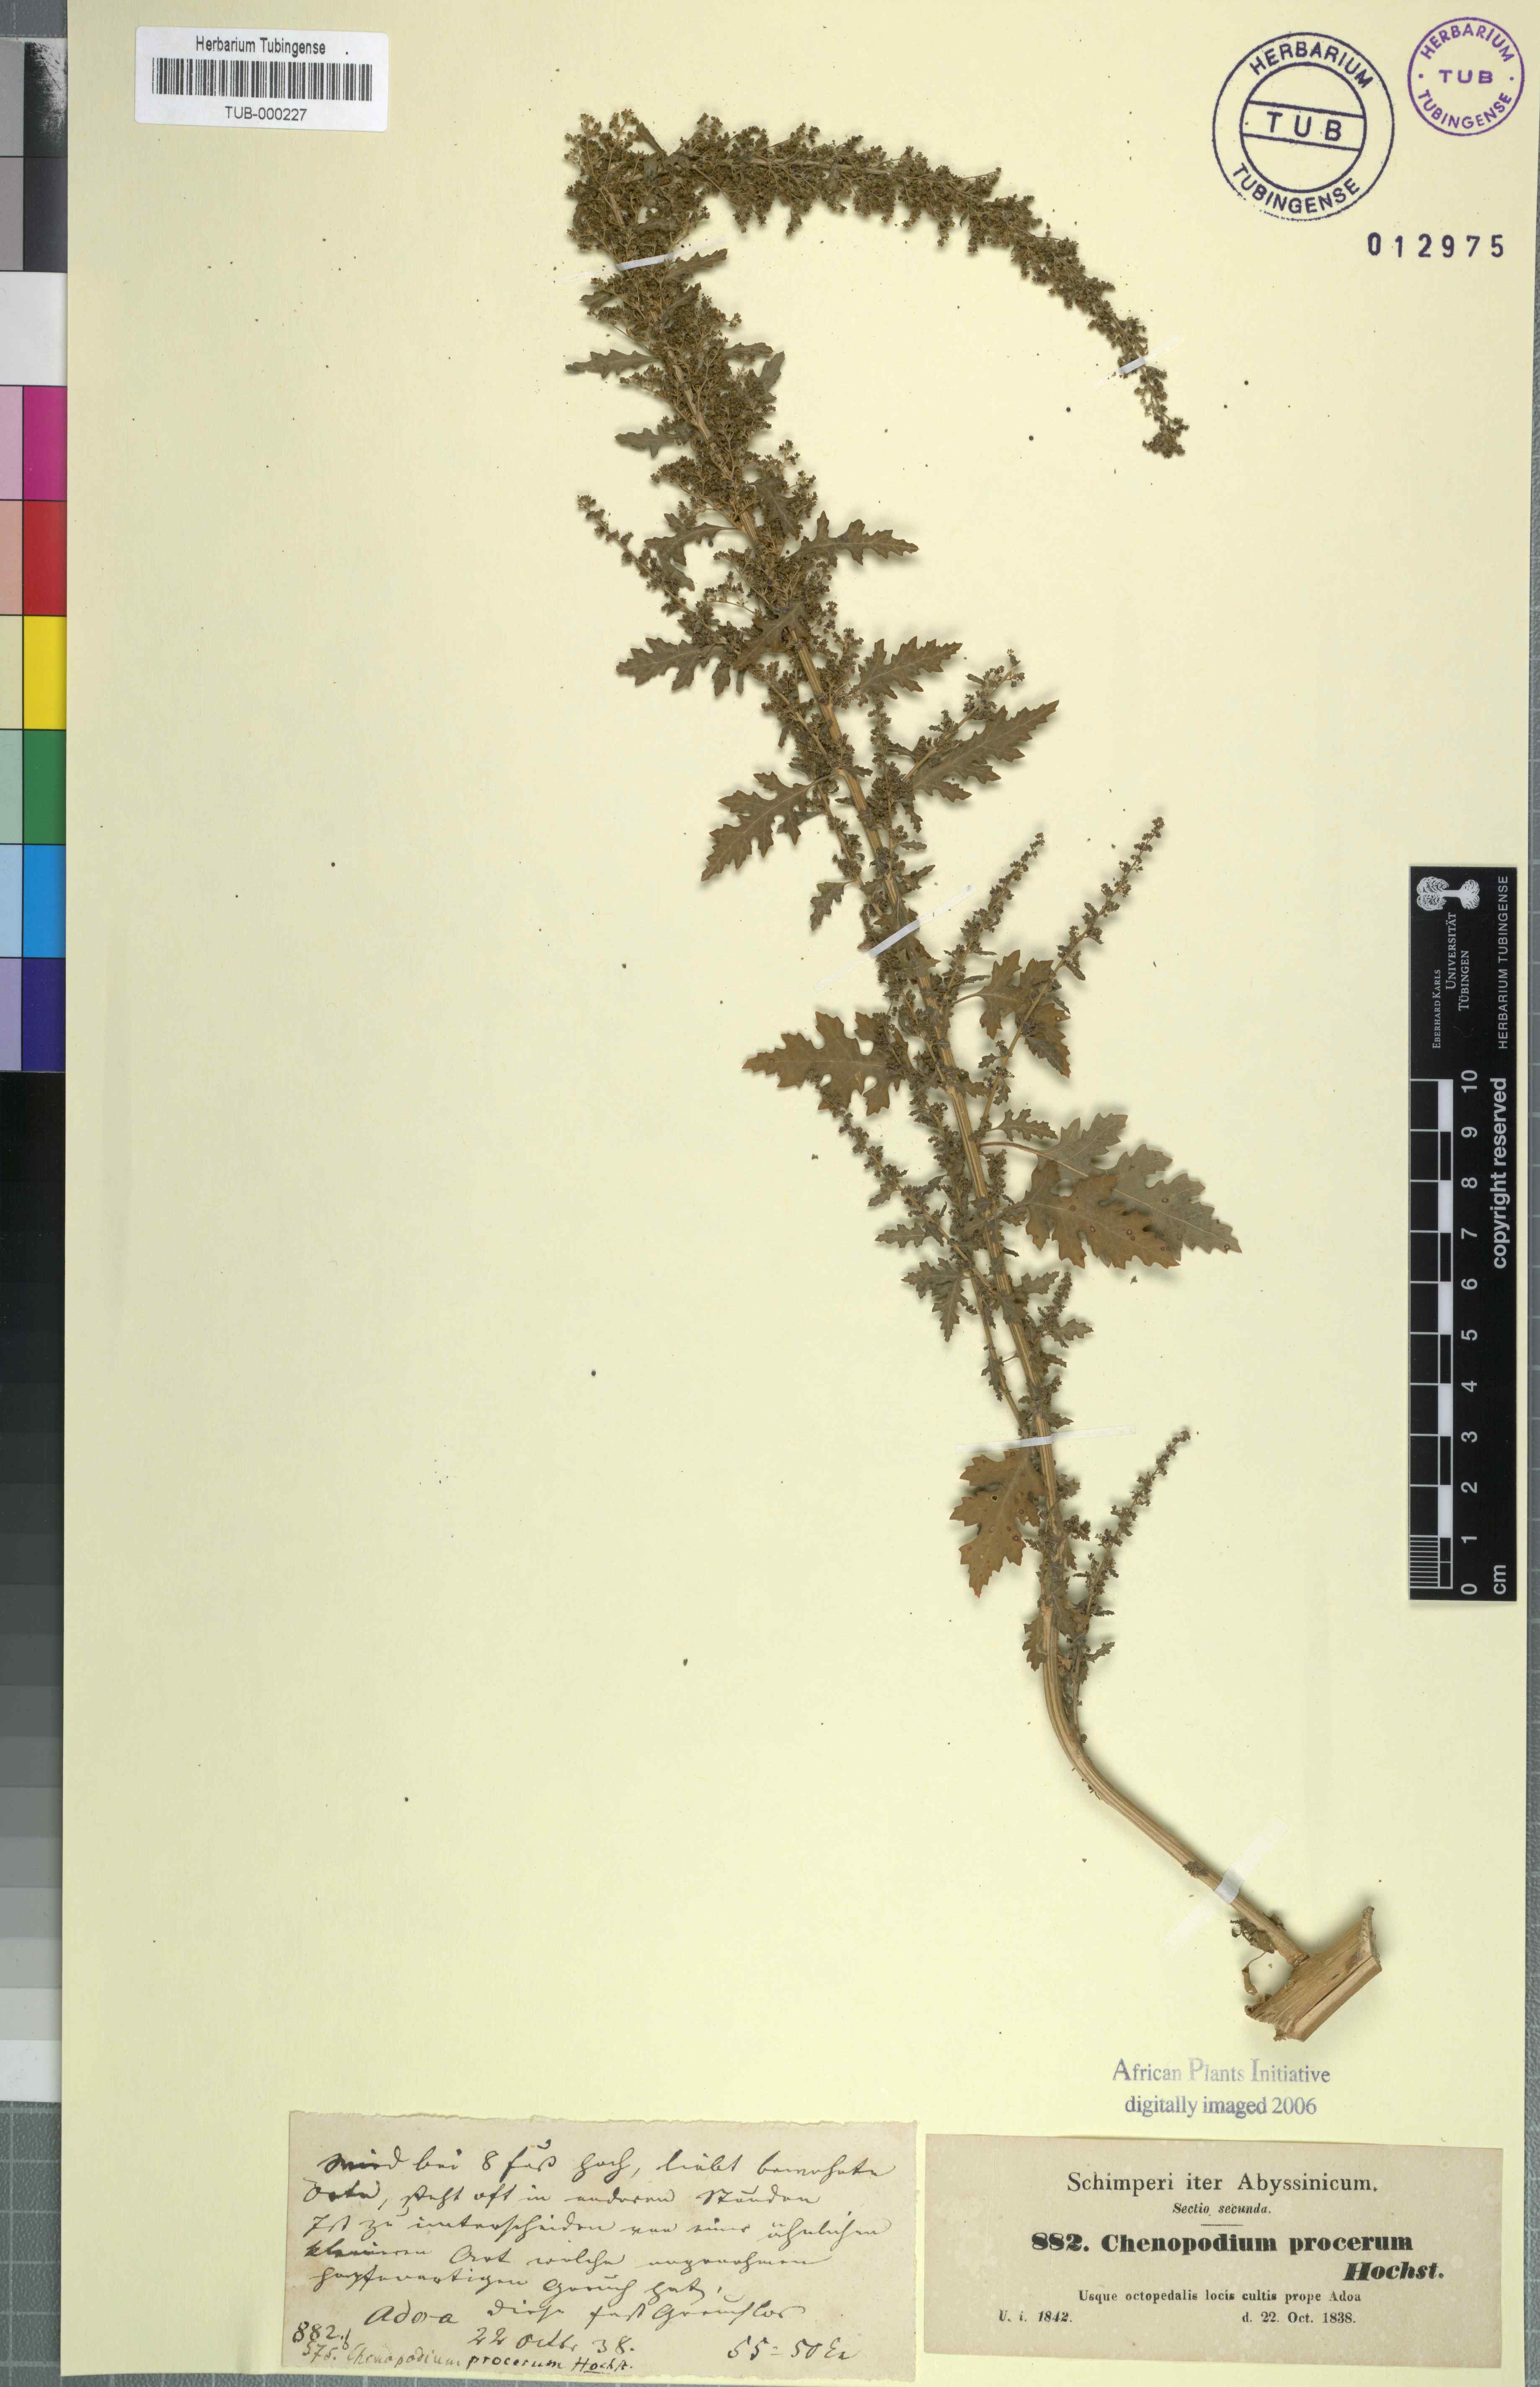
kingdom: Plantae
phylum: Tracheophyta
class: Magnoliopsida
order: Caryophyllales
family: Amaranthaceae
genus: Chenopodium
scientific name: Chenopodium procerum
